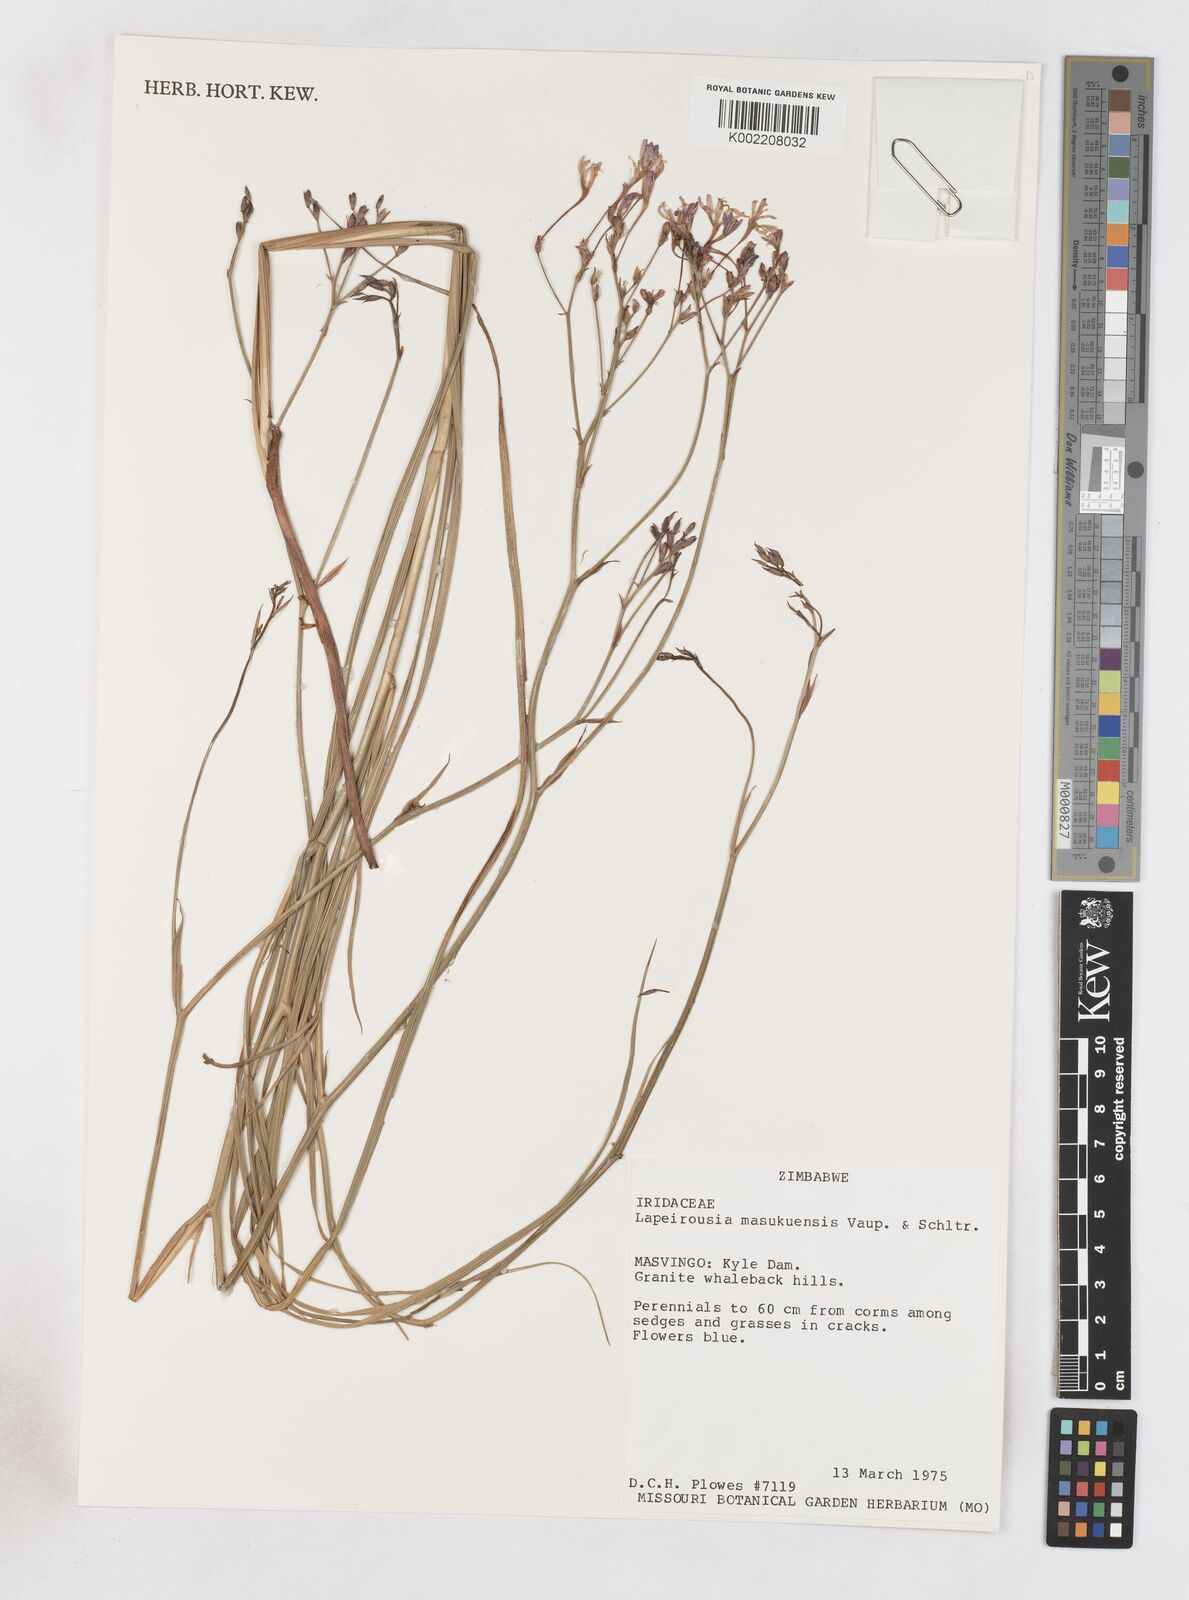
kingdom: Plantae
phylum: Tracheophyta
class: Liliopsida
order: Asparagales
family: Iridaceae
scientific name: Iridaceae
